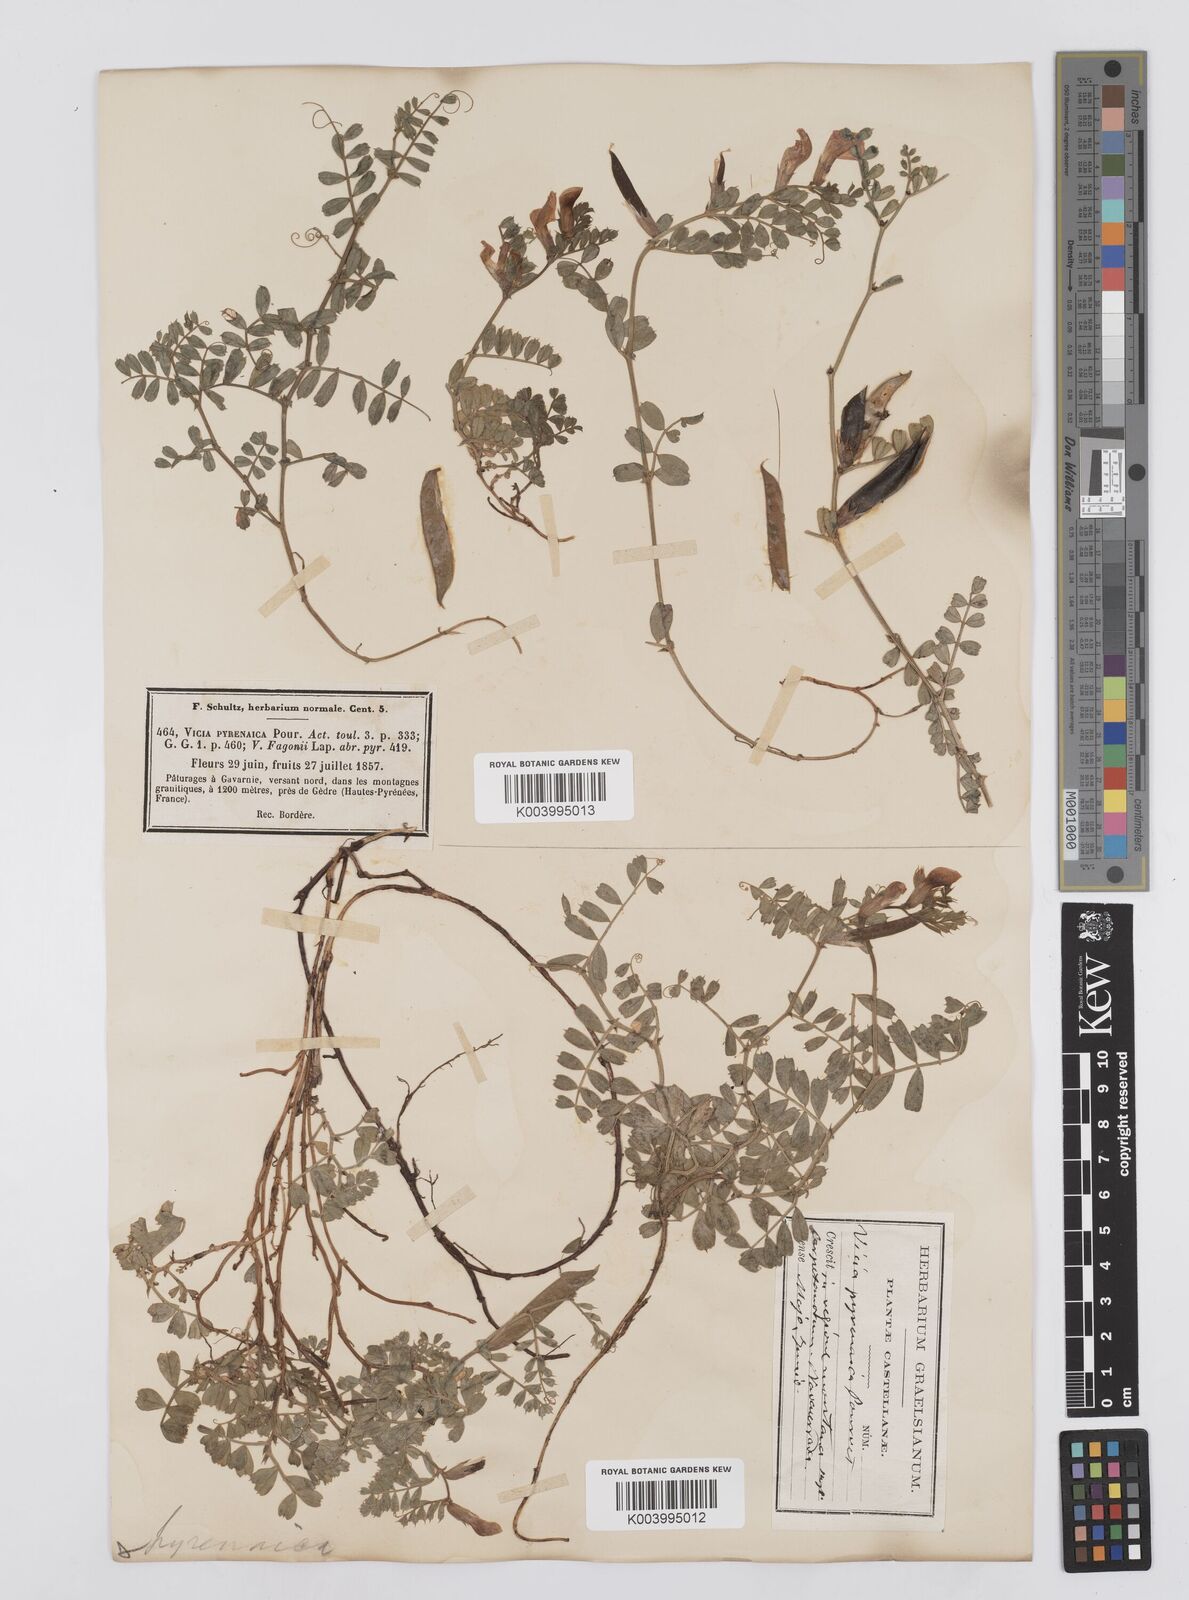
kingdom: Plantae
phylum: Tracheophyta
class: Magnoliopsida
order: Fabales
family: Fabaceae
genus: Vicia
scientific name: Vicia pyrenaica
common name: Pyrenean vetch
